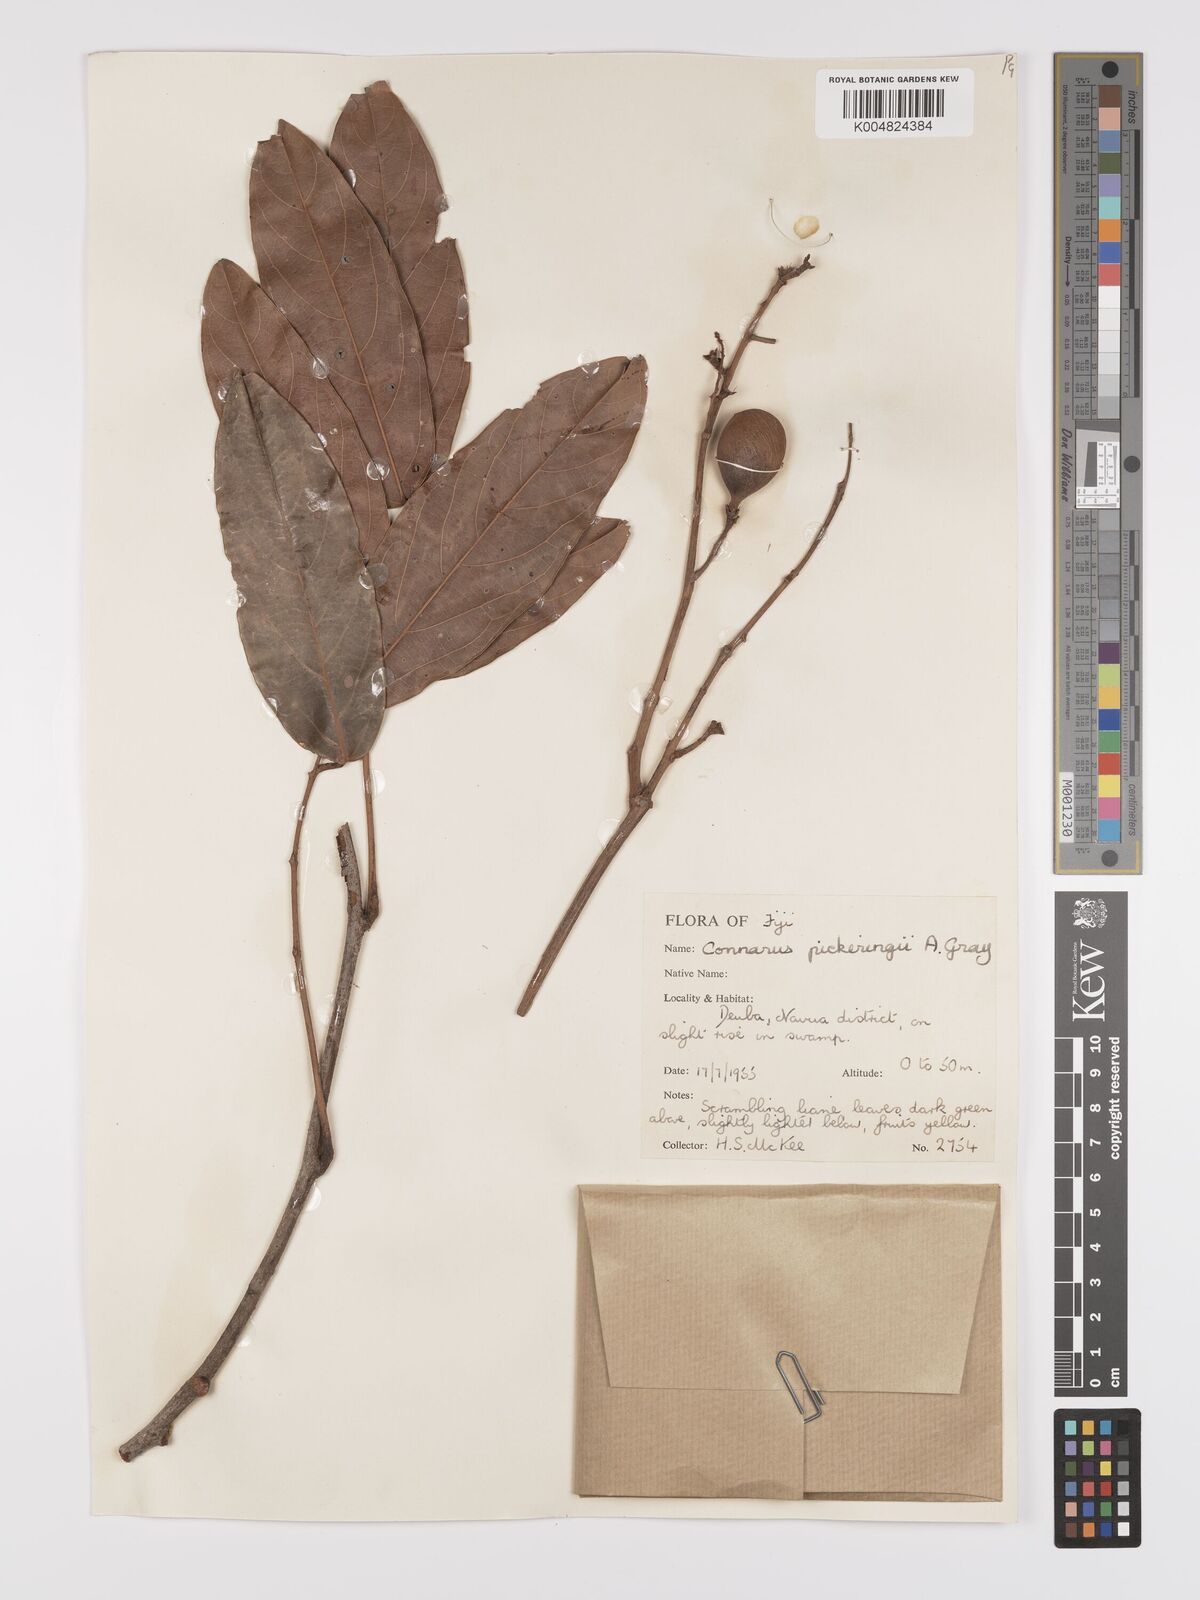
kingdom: Plantae
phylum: Tracheophyta
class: Magnoliopsida
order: Oxalidales
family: Connaraceae
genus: Connarus
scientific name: Connarus pickeringii
